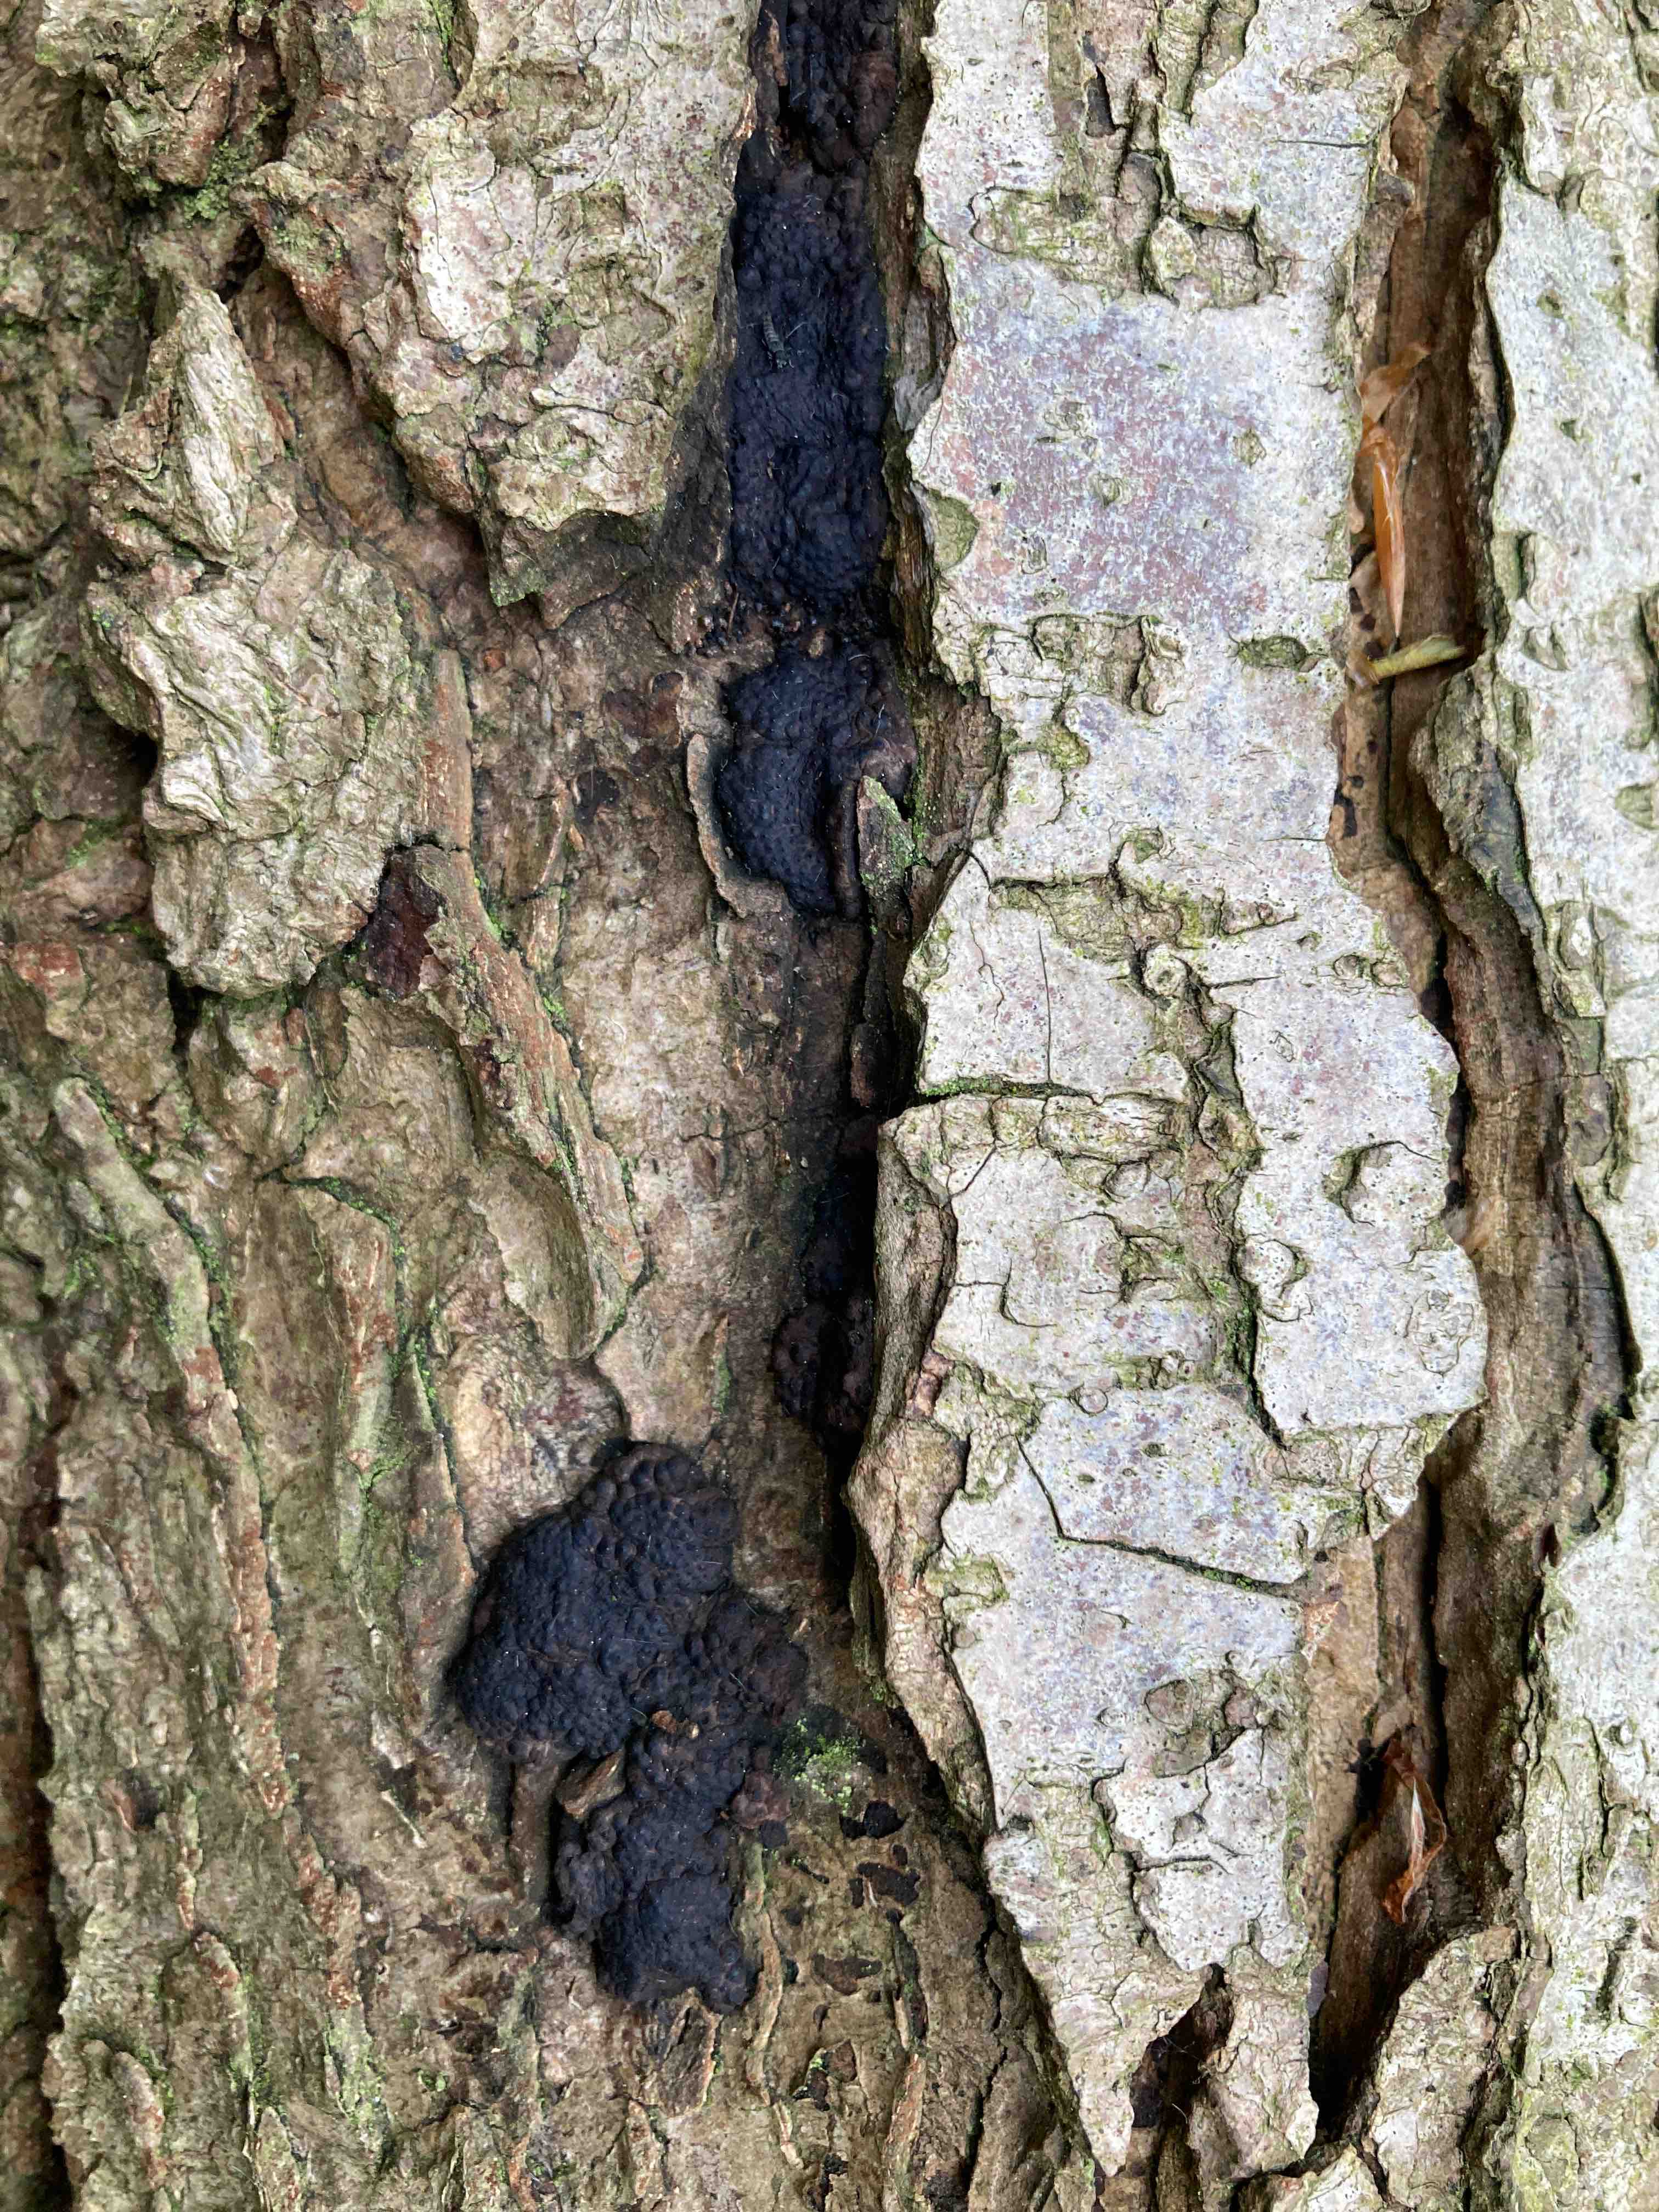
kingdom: Fungi
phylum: Ascomycota
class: Sordariomycetes
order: Xylariales
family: Hypoxylaceae
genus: Jackrogersella
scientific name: Jackrogersella multiformis
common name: foranderlig kulbær
